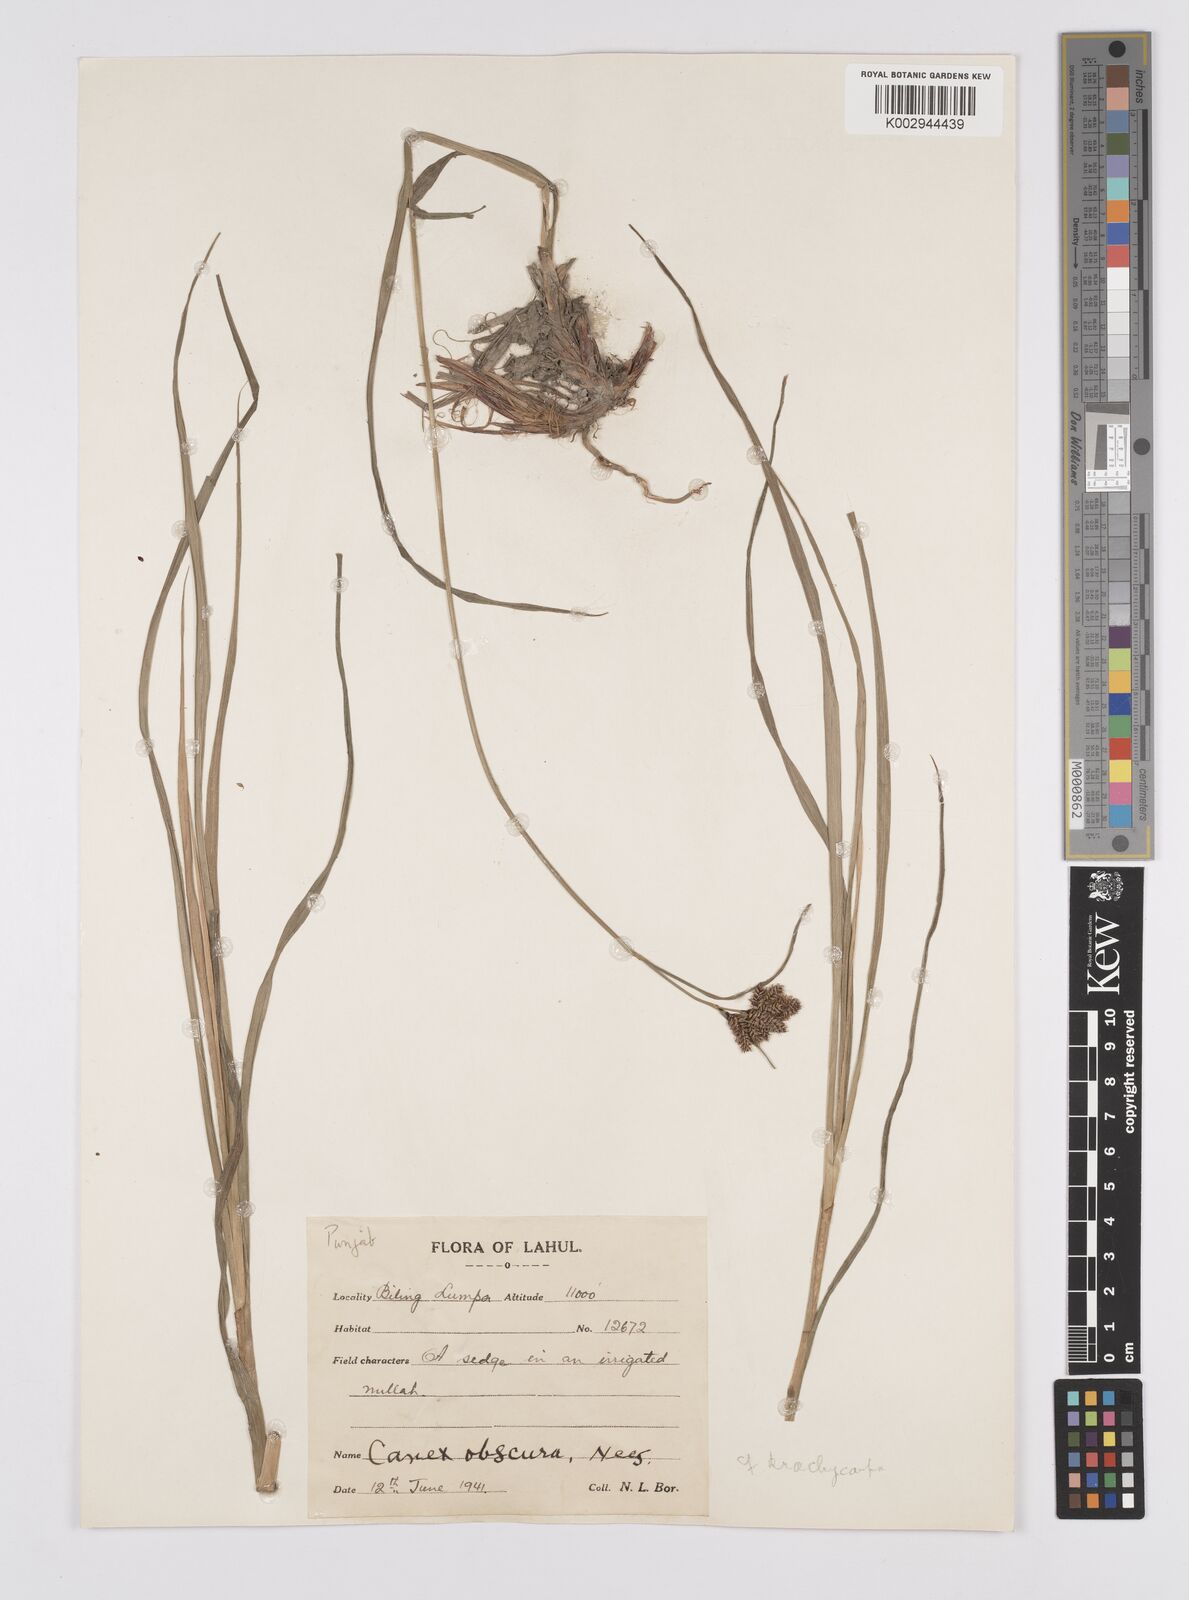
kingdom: Plantae
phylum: Tracheophyta
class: Liliopsida
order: Poales
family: Cyperaceae
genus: Carex
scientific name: Carex obscura
